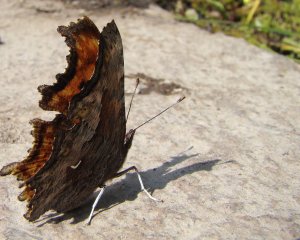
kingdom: Animalia
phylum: Arthropoda
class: Insecta
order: Lepidoptera
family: Nymphalidae
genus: Polygonia
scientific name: Polygonia gracilis
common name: Hoary Comma
